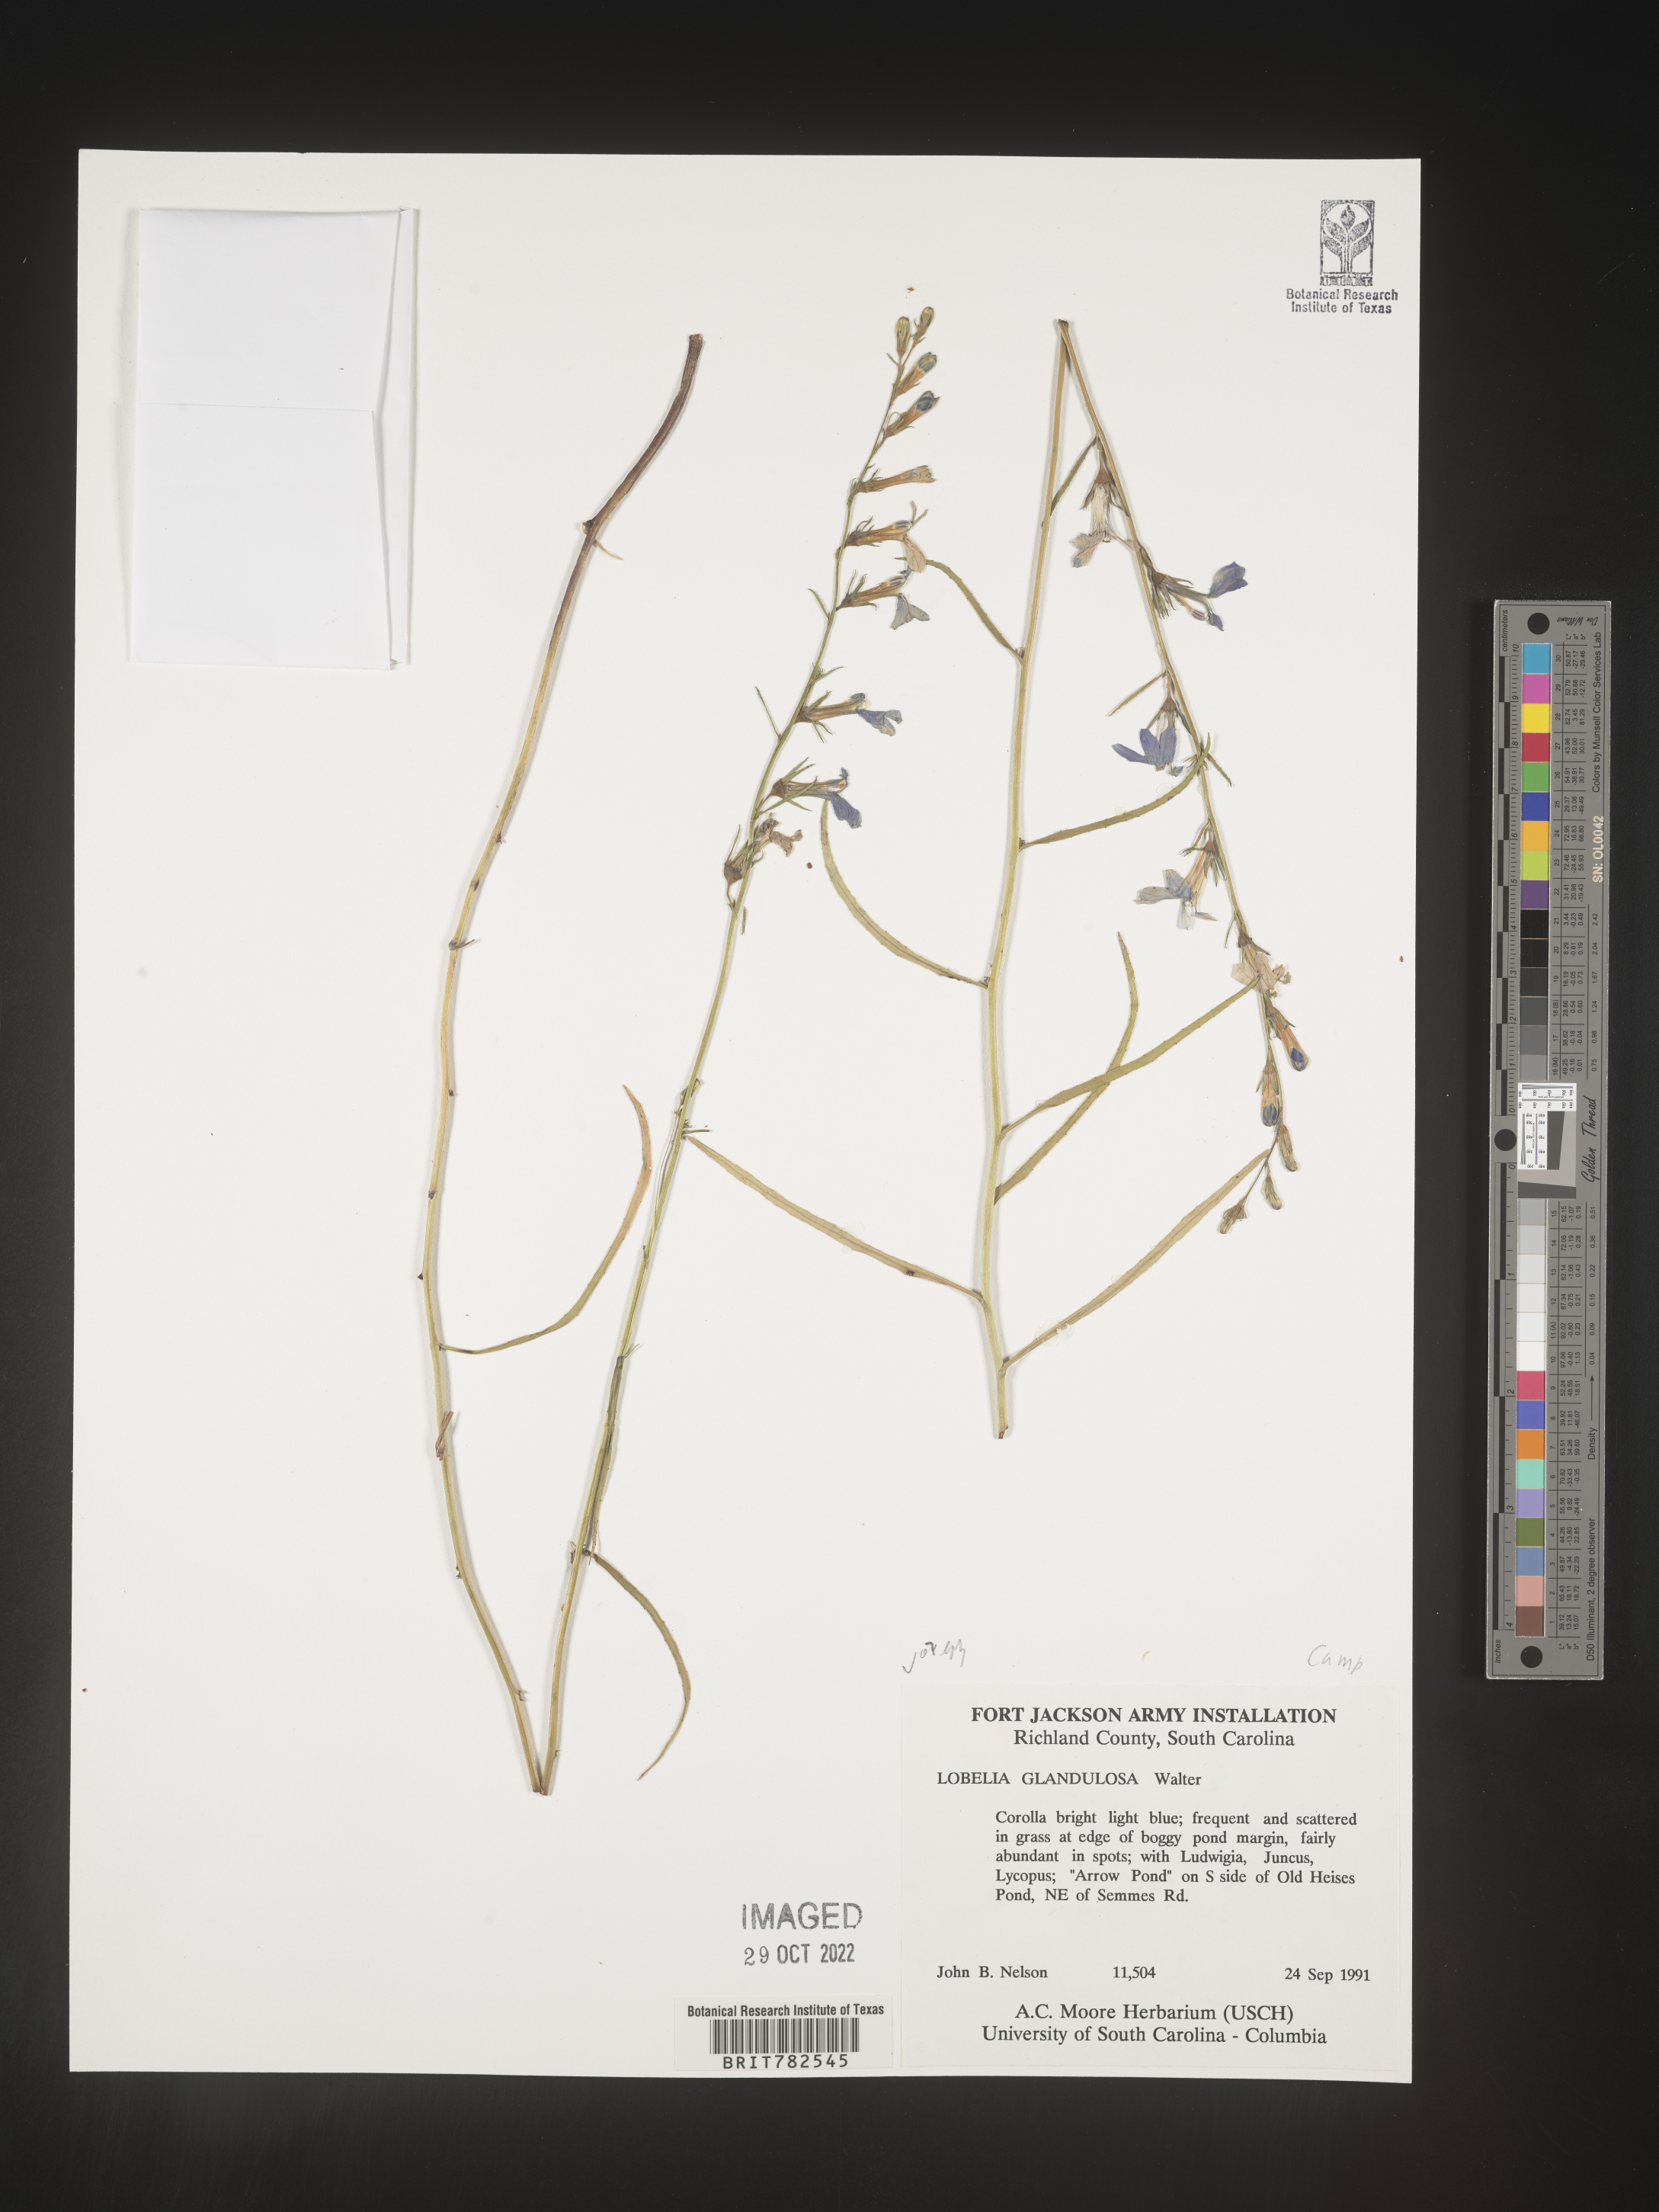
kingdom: Plantae
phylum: Tracheophyta
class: Magnoliopsida
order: Asterales
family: Campanulaceae
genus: Lobelia
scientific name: Lobelia
